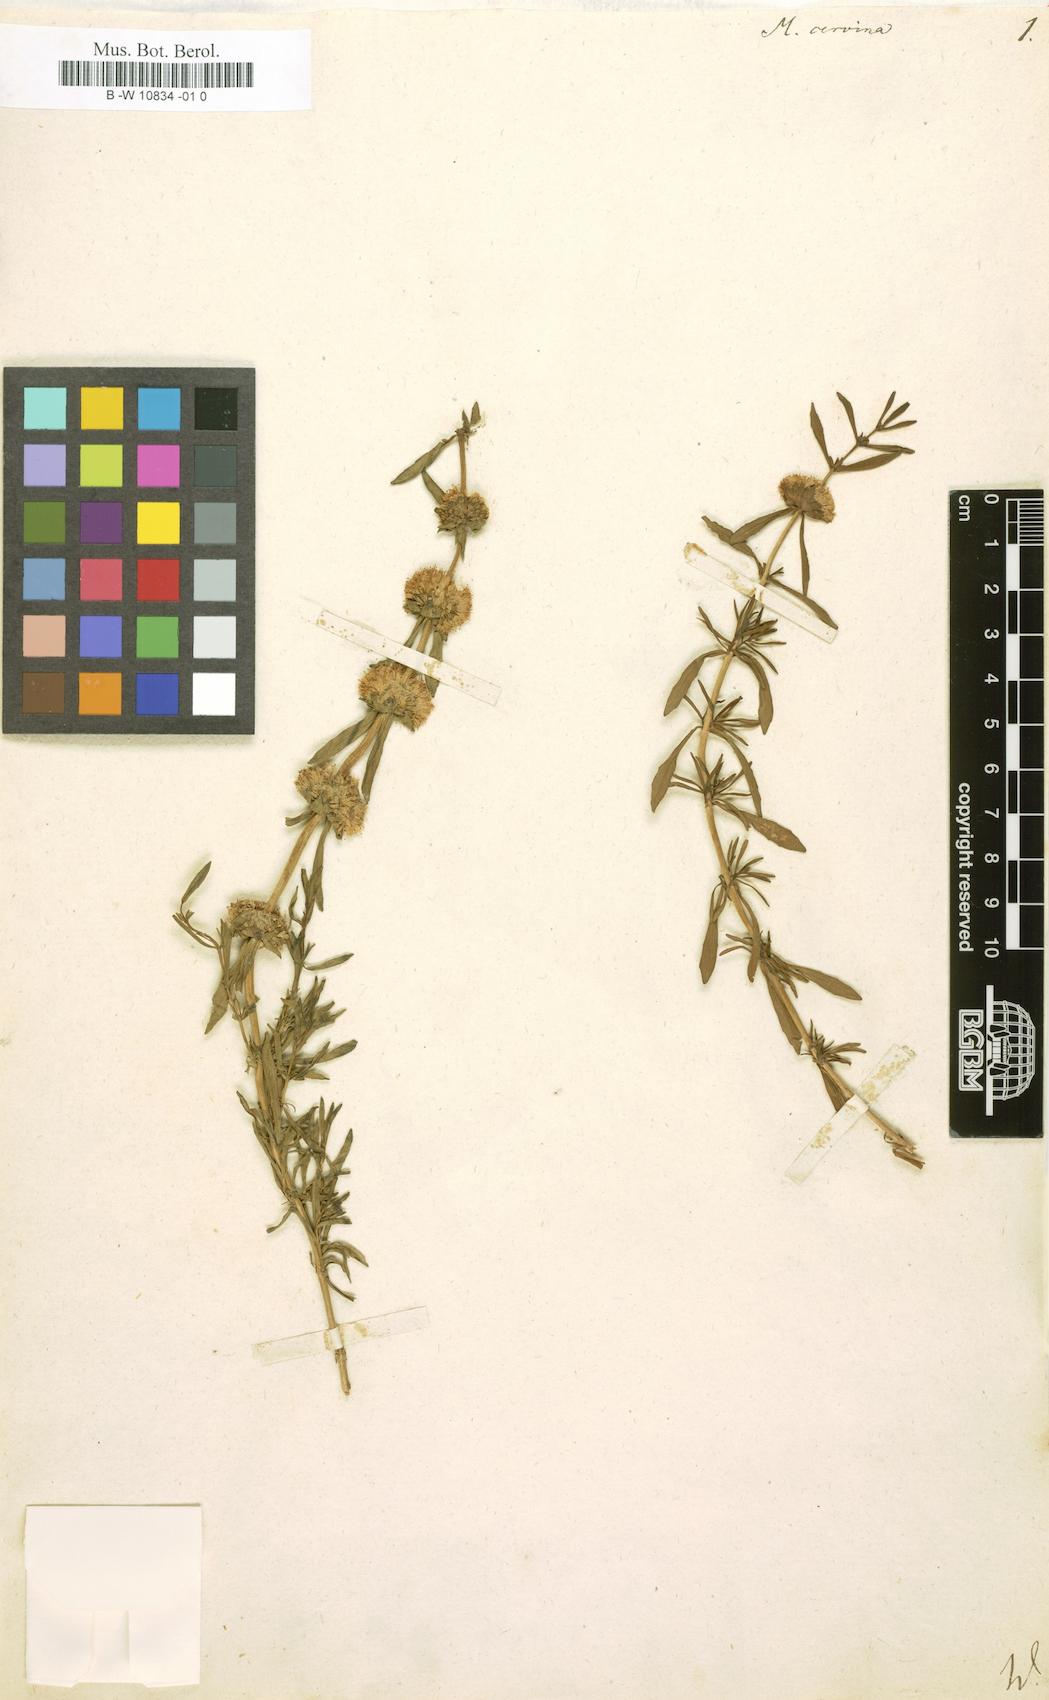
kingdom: Plantae
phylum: Tracheophyta
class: Magnoliopsida
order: Lamiales
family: Lamiaceae
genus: Mentha
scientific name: Mentha cervina
